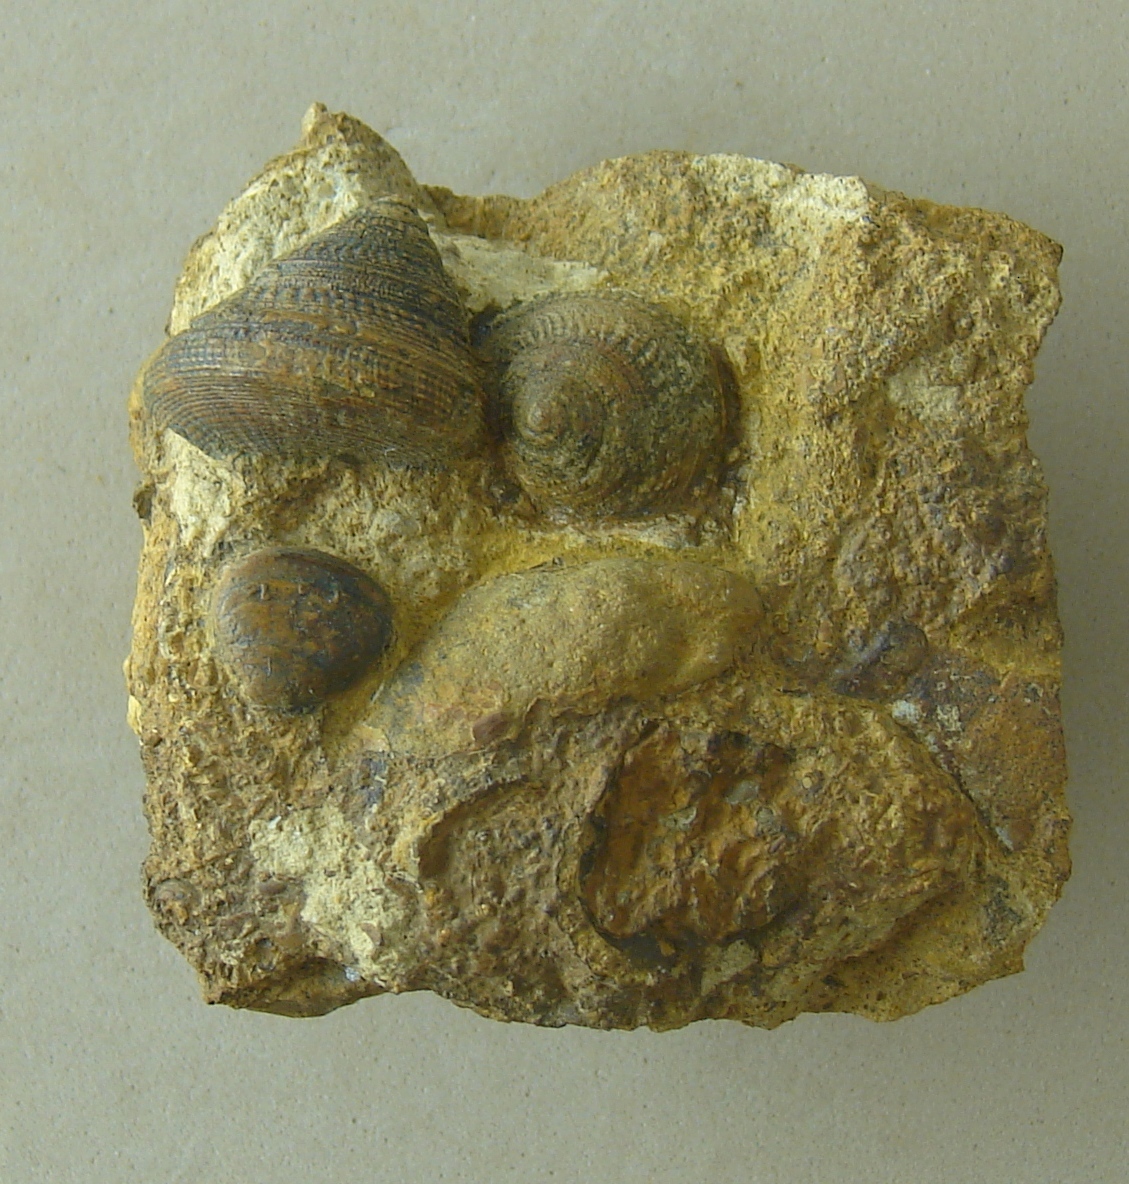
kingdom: Animalia
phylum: Mollusca
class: Gastropoda
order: Pleurotomariida
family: Pleurotomariidae
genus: Bathrotomaria
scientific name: Bathrotomaria Pleurotomaria subreticulata
